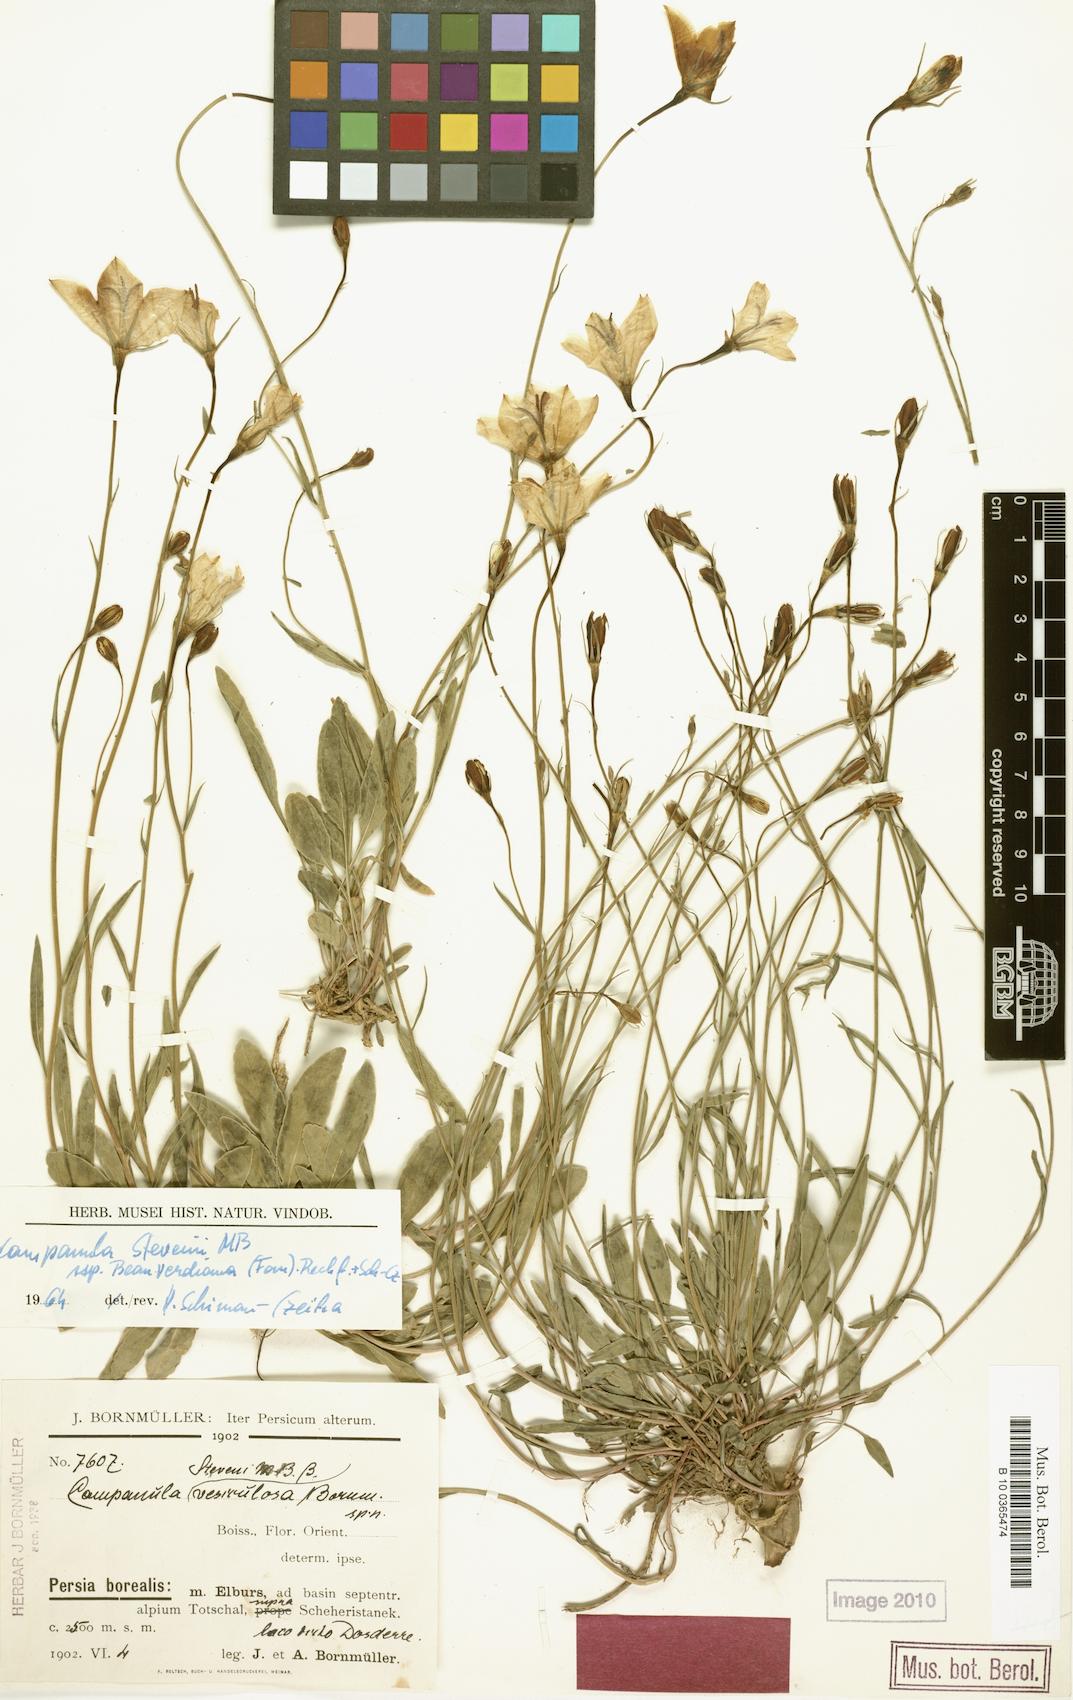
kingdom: Plantae
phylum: Tracheophyta
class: Magnoliopsida
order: Asterales
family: Campanulaceae
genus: Campanula
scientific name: Campanula stevenii
